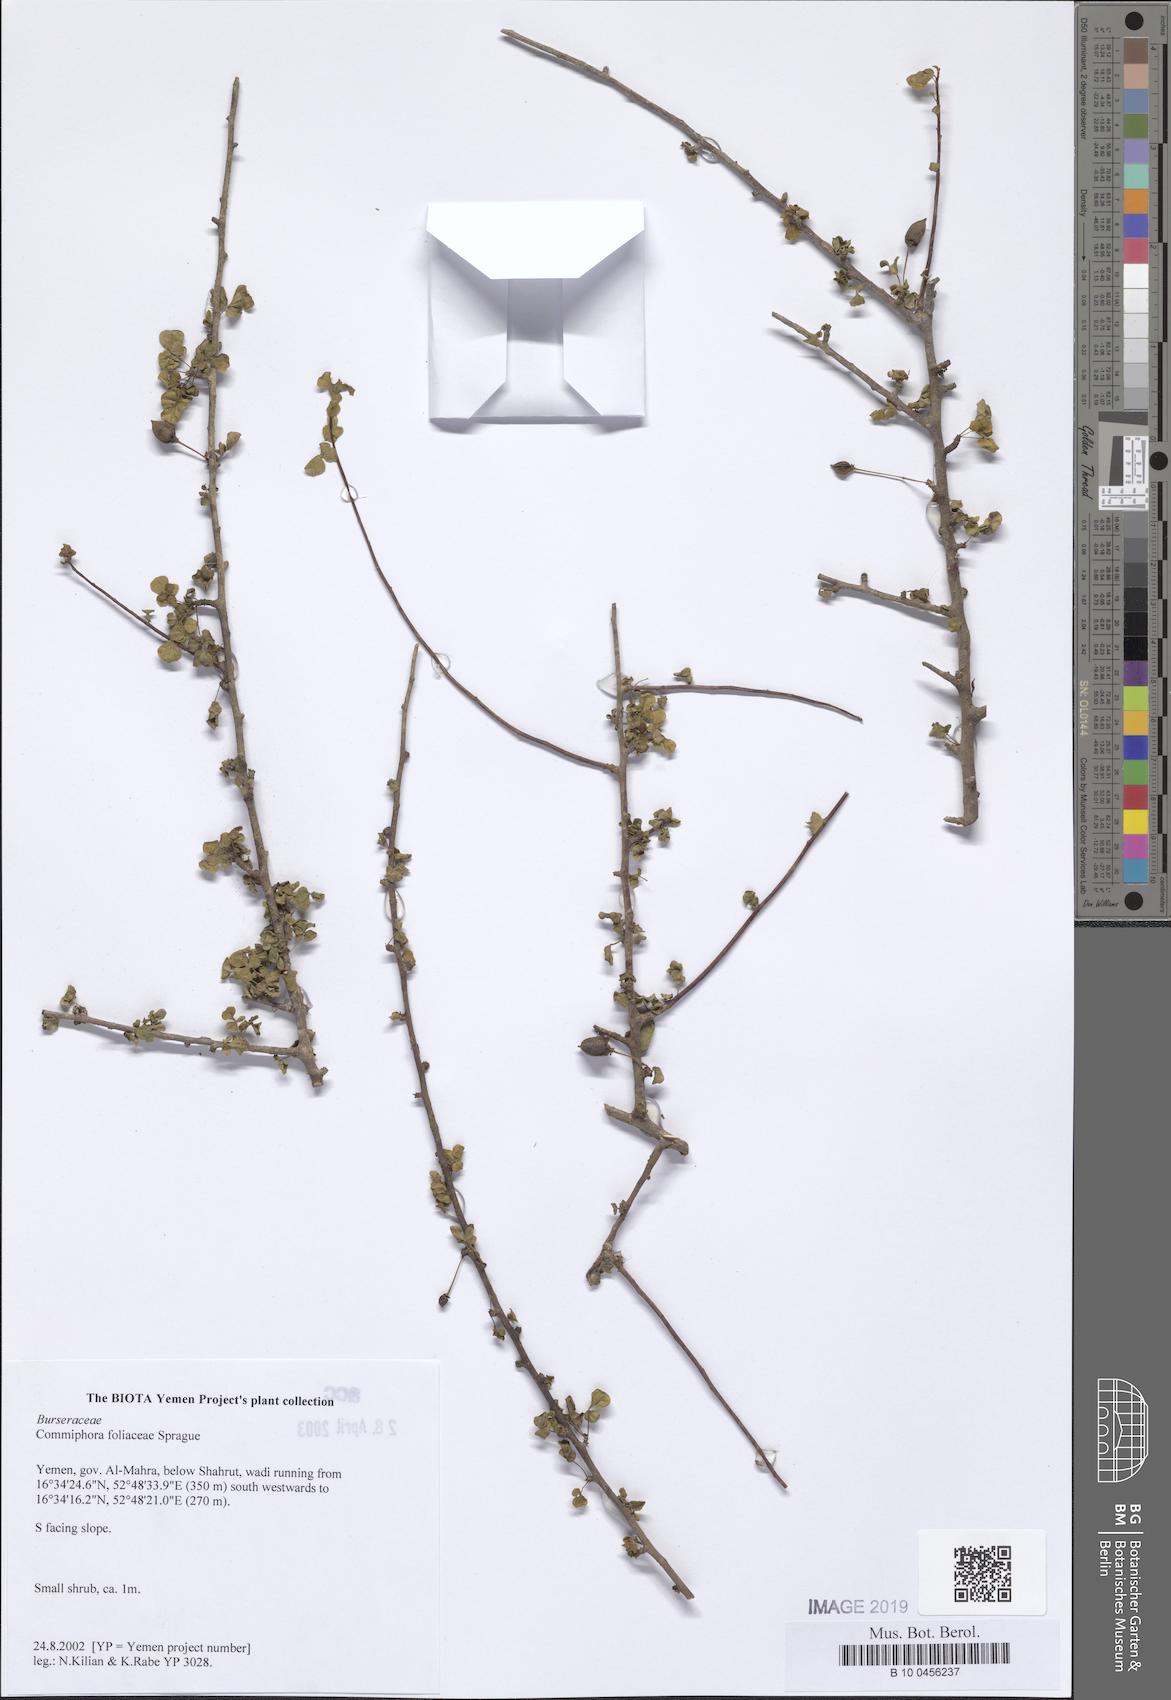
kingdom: Plantae
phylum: Tracheophyta
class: Magnoliopsida
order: Sapindales
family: Burseraceae
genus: Commiphora
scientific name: Commiphora foliacea
